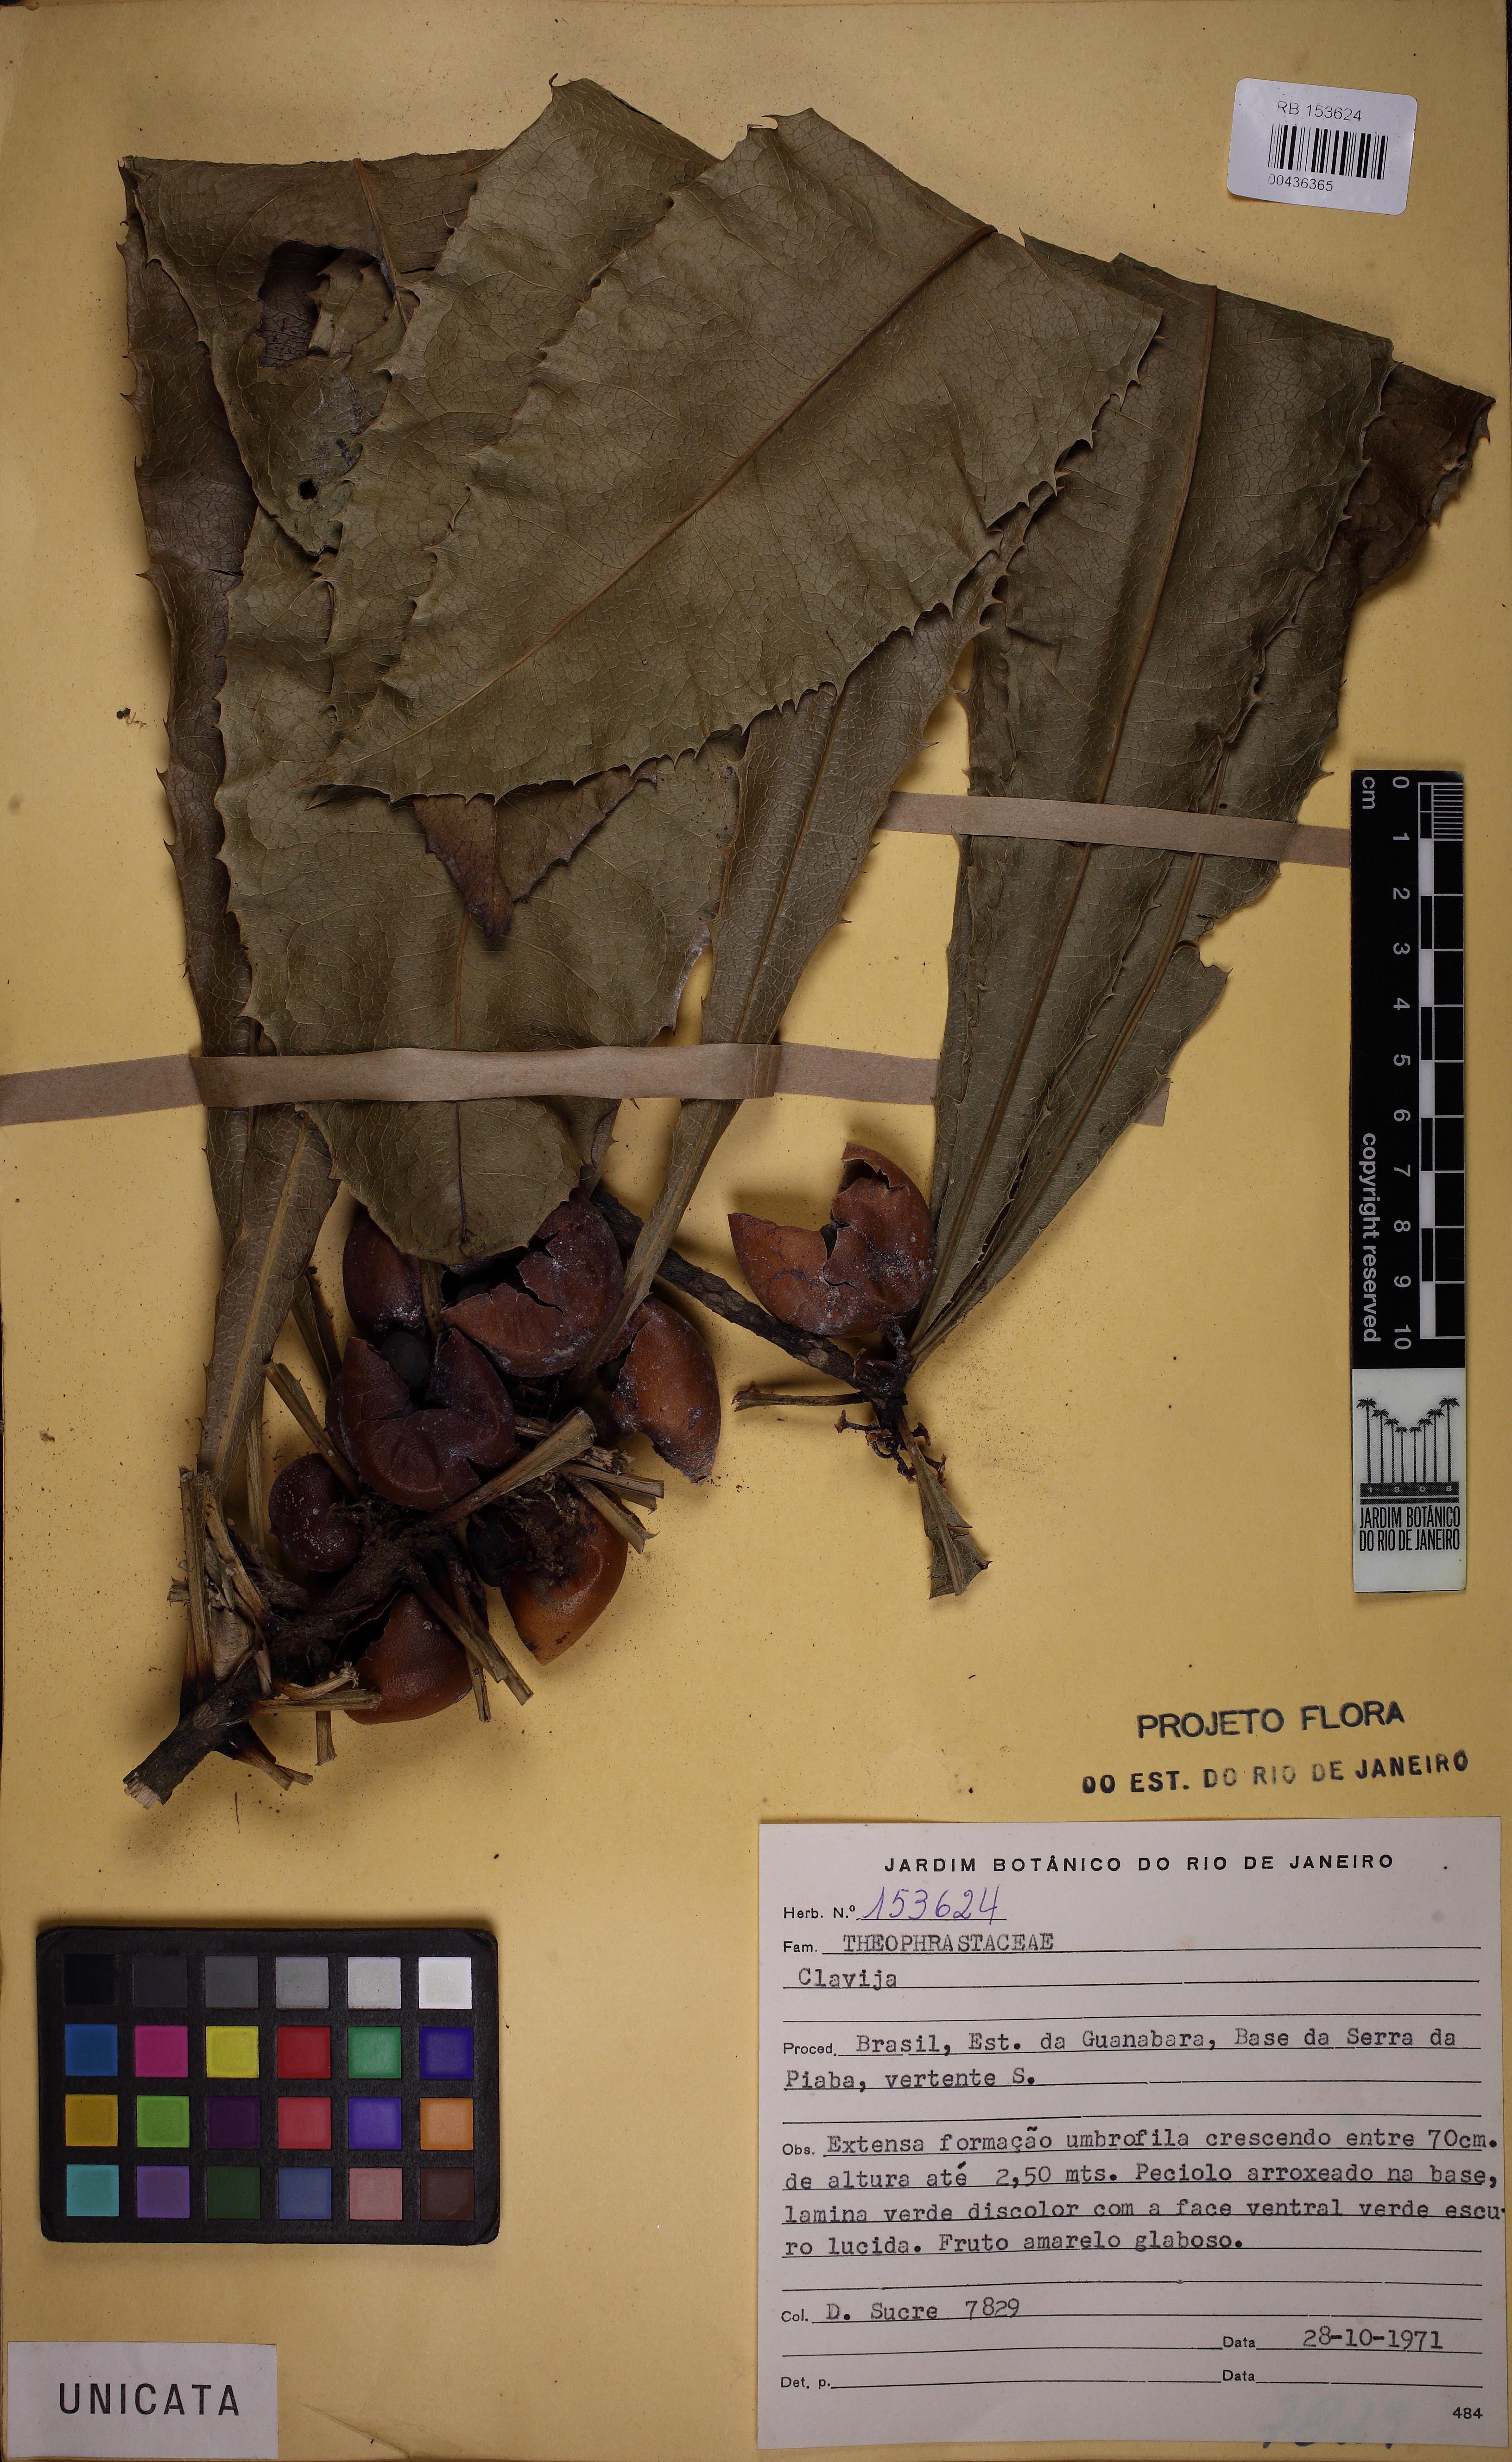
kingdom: Plantae
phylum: Tracheophyta
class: Magnoliopsida
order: Ericales
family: Primulaceae
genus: Clavija
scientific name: Clavija
